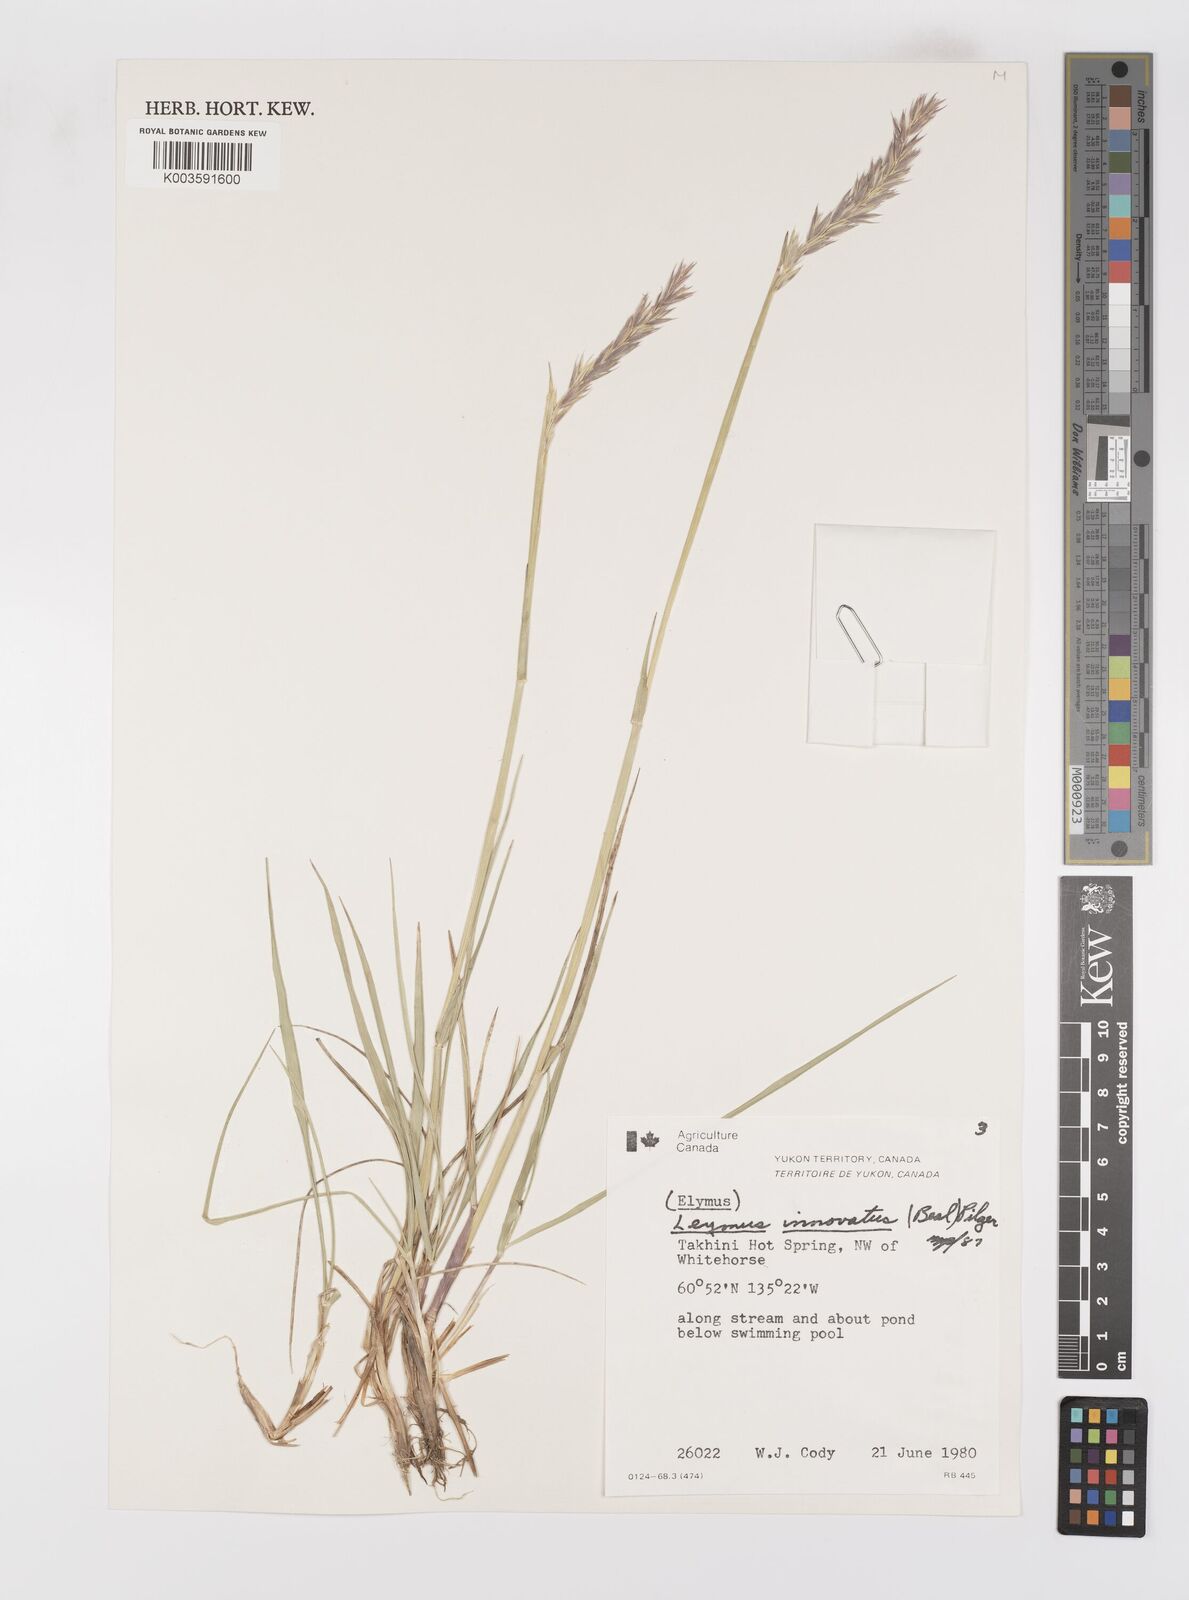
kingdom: Plantae
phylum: Tracheophyta
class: Liliopsida
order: Poales
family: Poaceae
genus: Leymus
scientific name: Leymus innovatus
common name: Boreal wild rye
